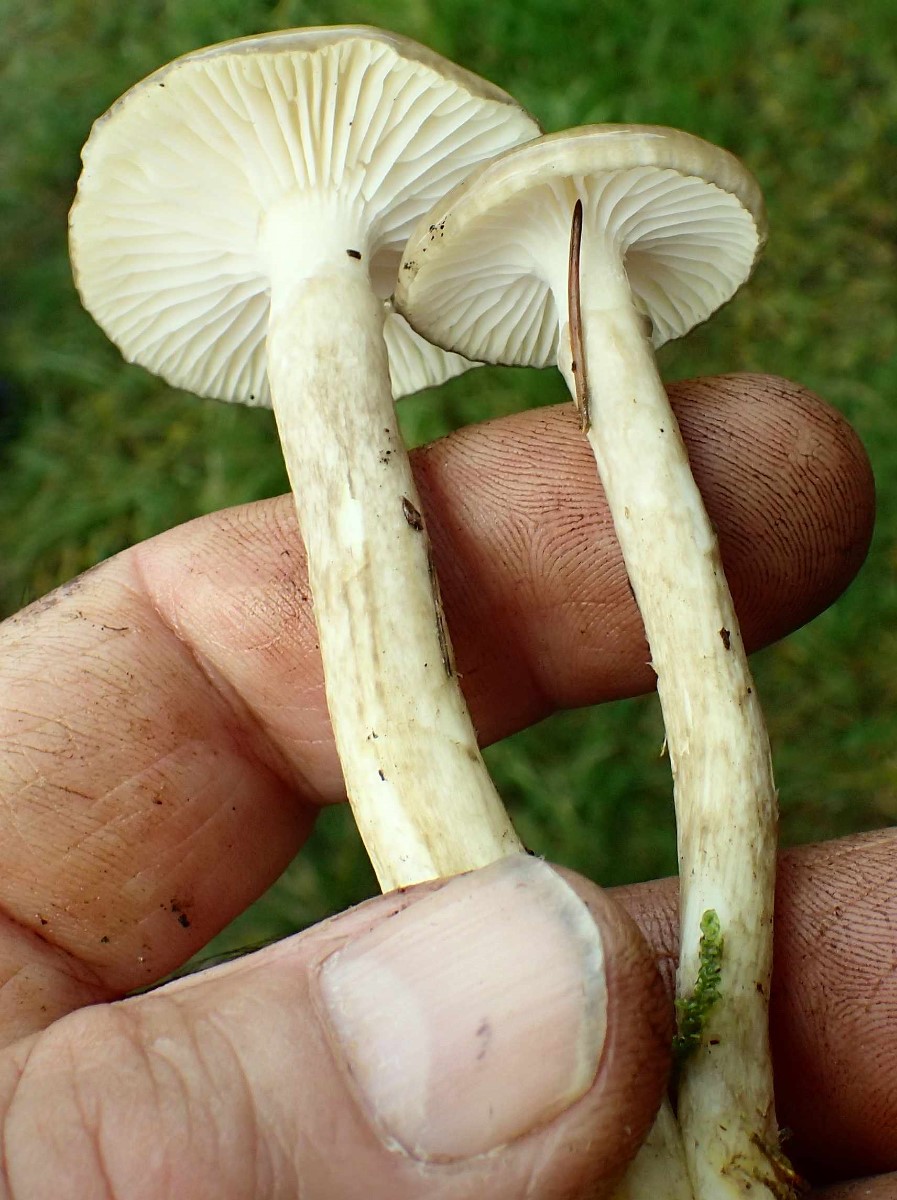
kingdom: Fungi
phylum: Basidiomycota
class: Agaricomycetes
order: Agaricales
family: Hygrophoraceae
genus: Hygrophorus
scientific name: Hygrophorus olivaceoalbus
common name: hvidbrun sneglehat
